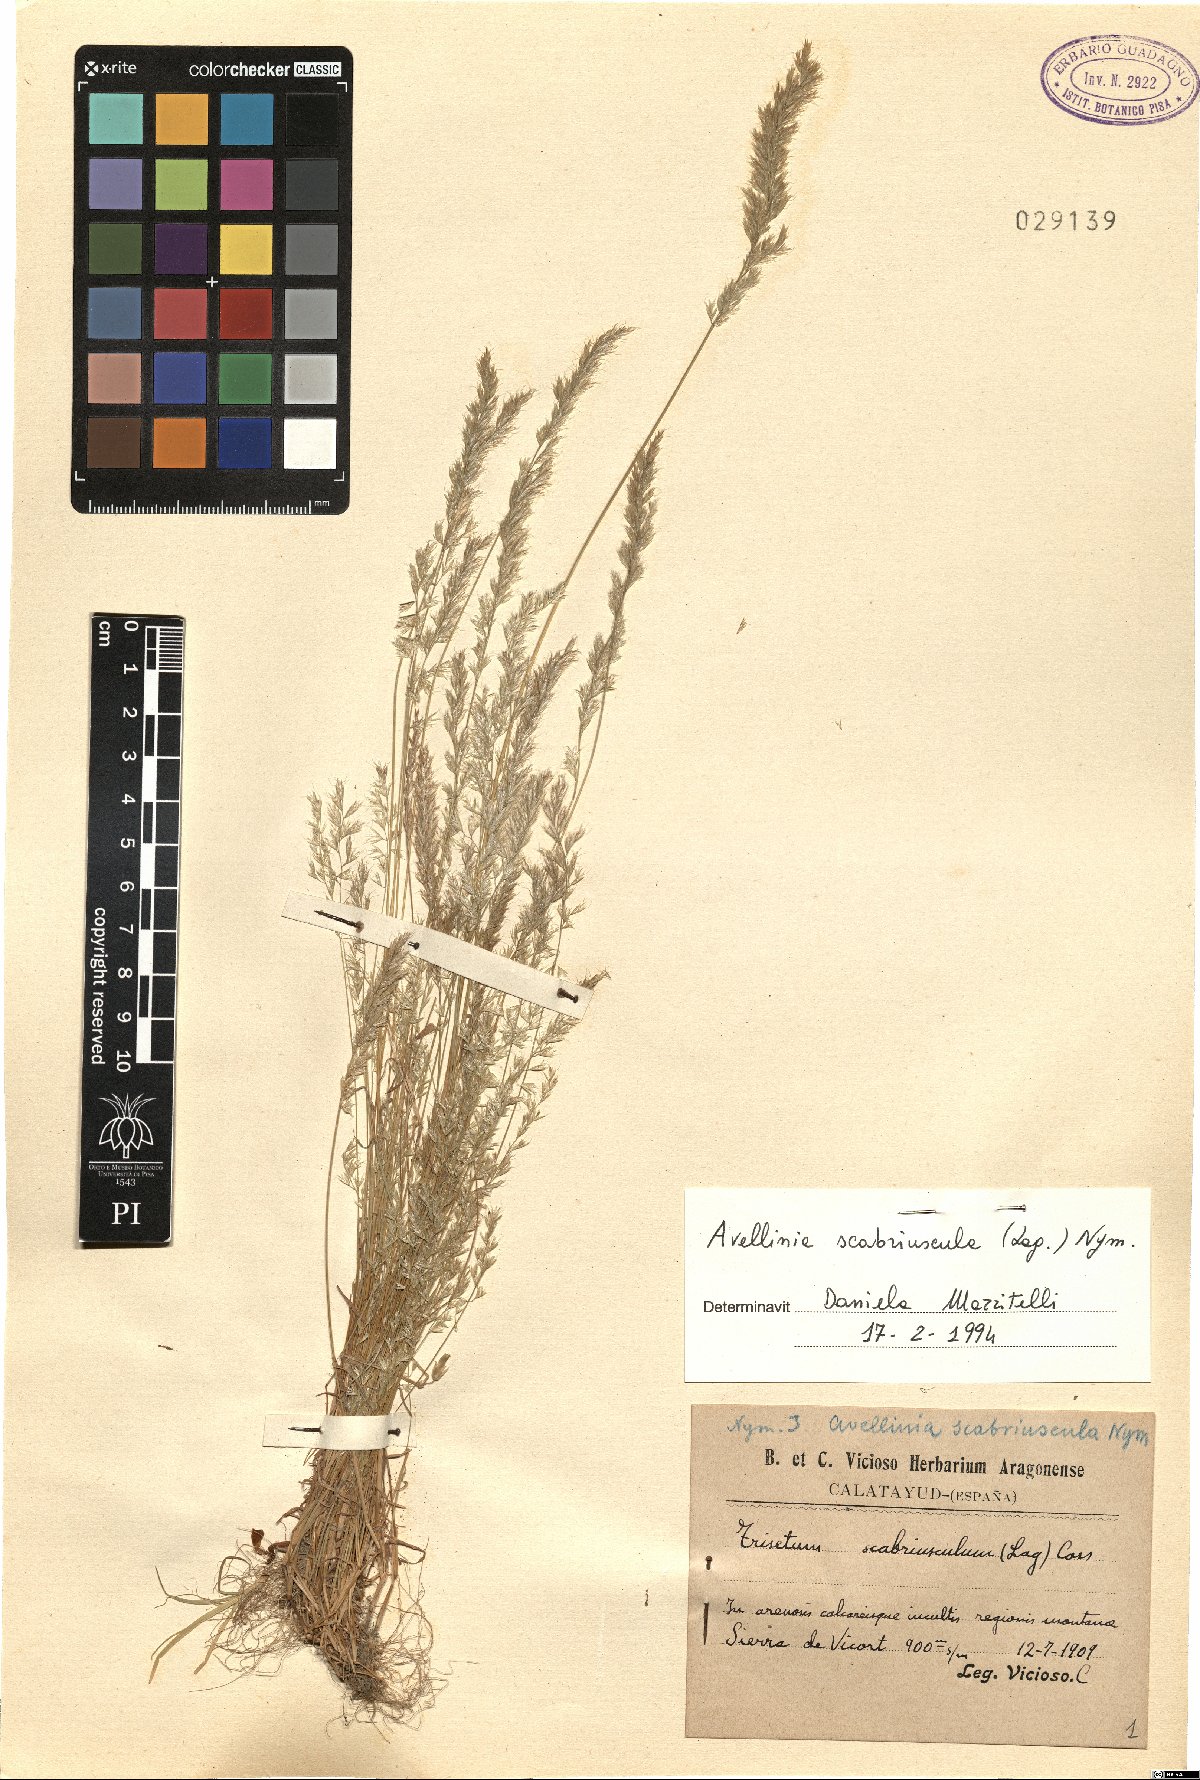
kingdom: Plantae
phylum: Tracheophyta
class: Liliopsida
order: Poales
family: Poaceae
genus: Trisetaria
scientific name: Trisetaria scabriuscula
